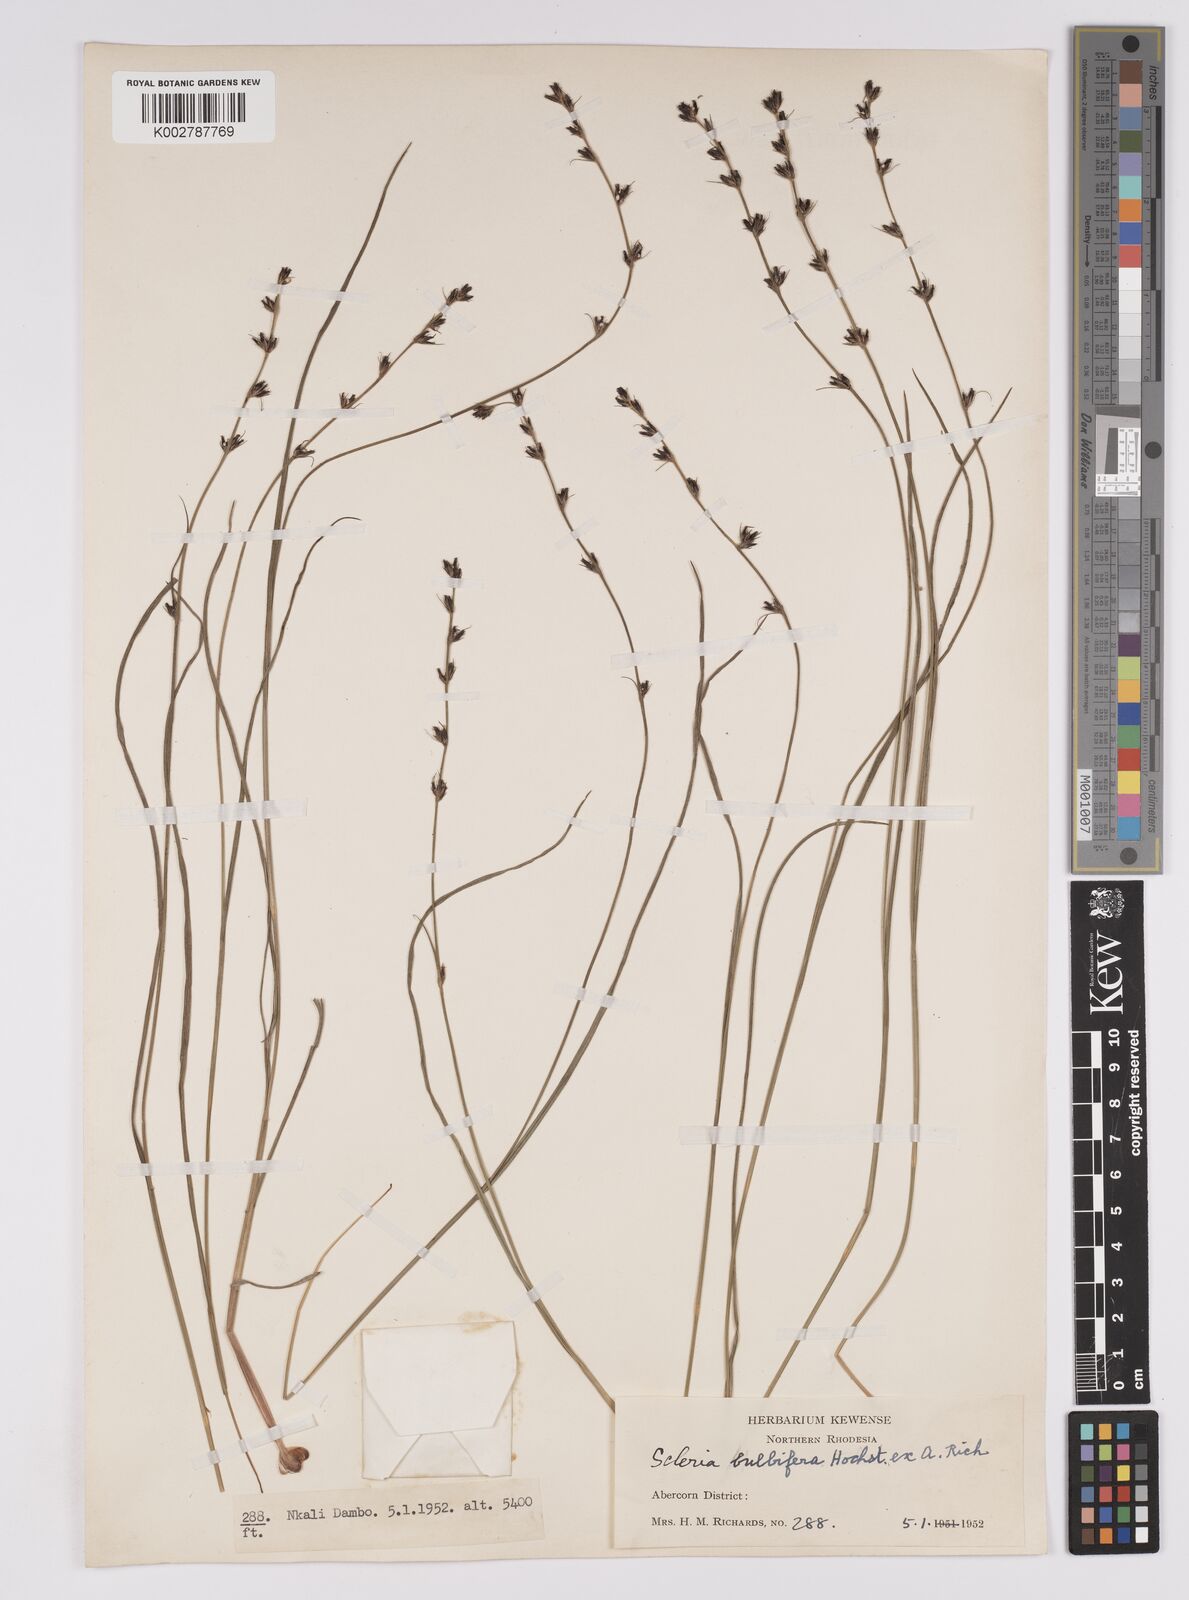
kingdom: Plantae
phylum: Tracheophyta
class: Liliopsida
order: Poales
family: Cyperaceae
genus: Scleria
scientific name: Scleria bulbifera
